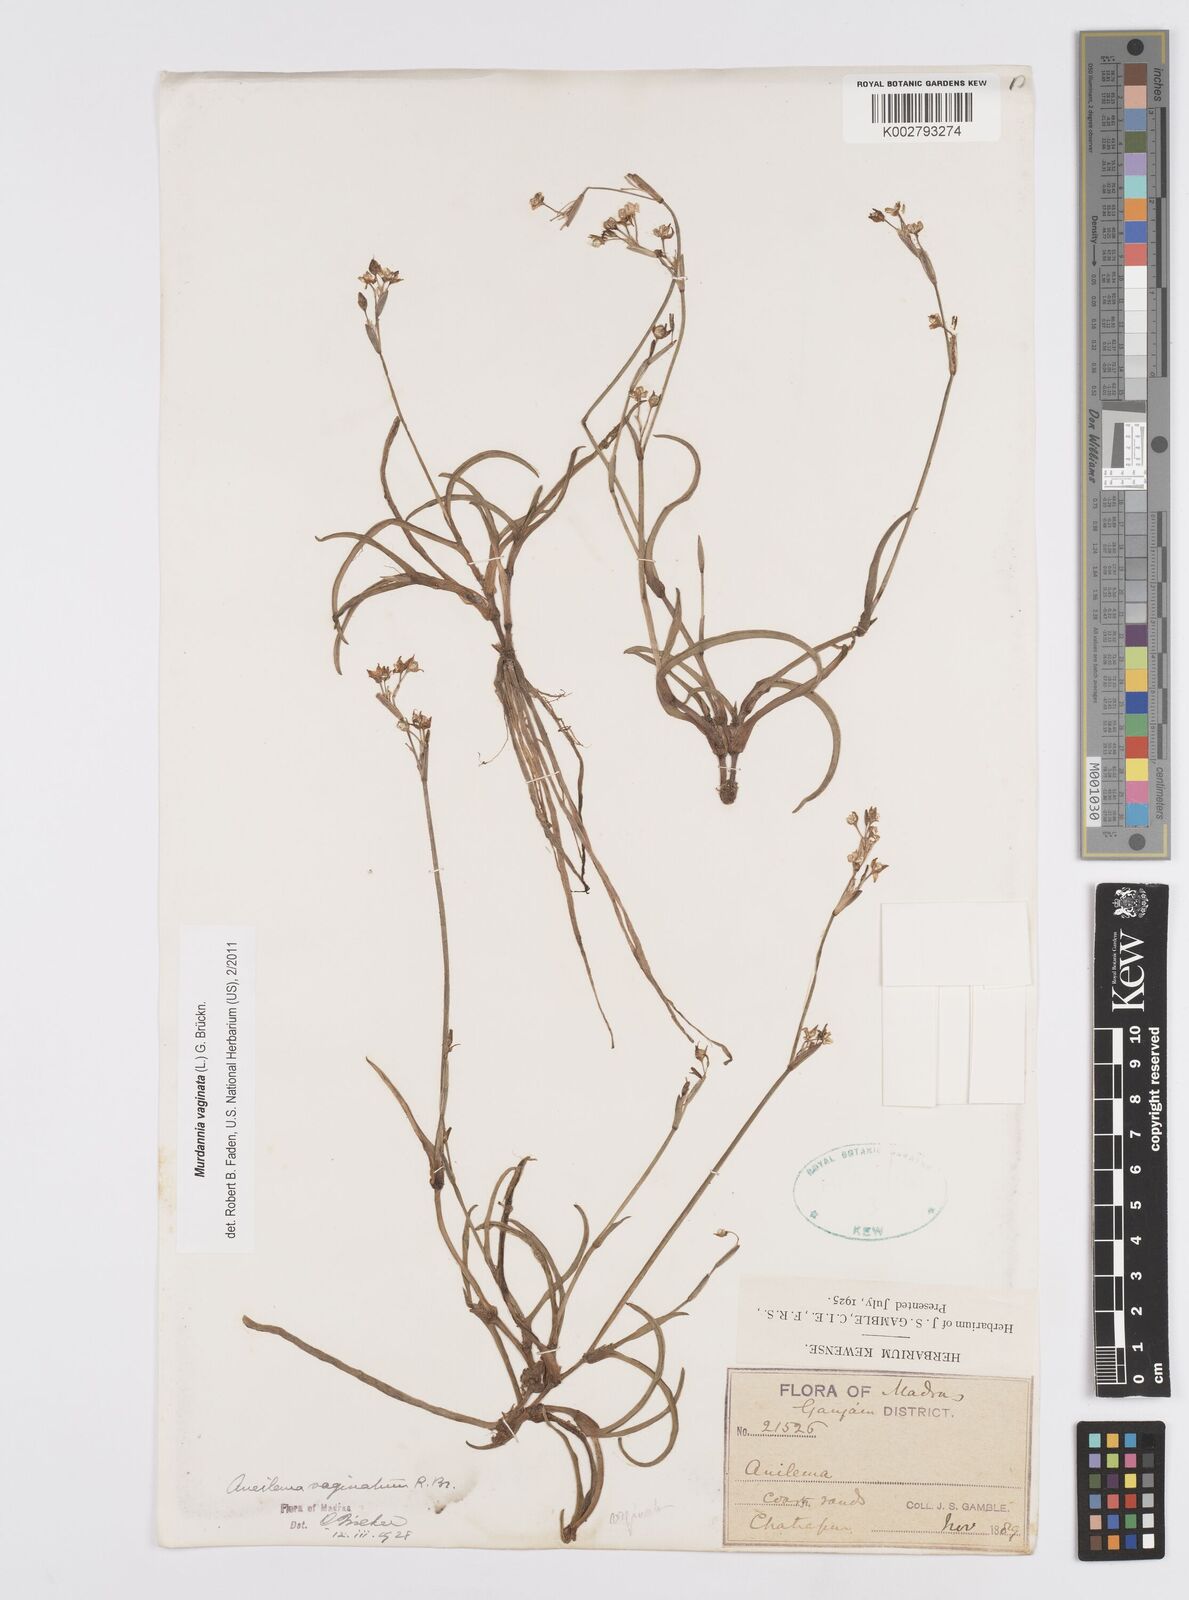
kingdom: Plantae
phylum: Tracheophyta
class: Liliopsida
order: Commelinales
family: Commelinaceae
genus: Murdannia
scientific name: Murdannia vaginata
